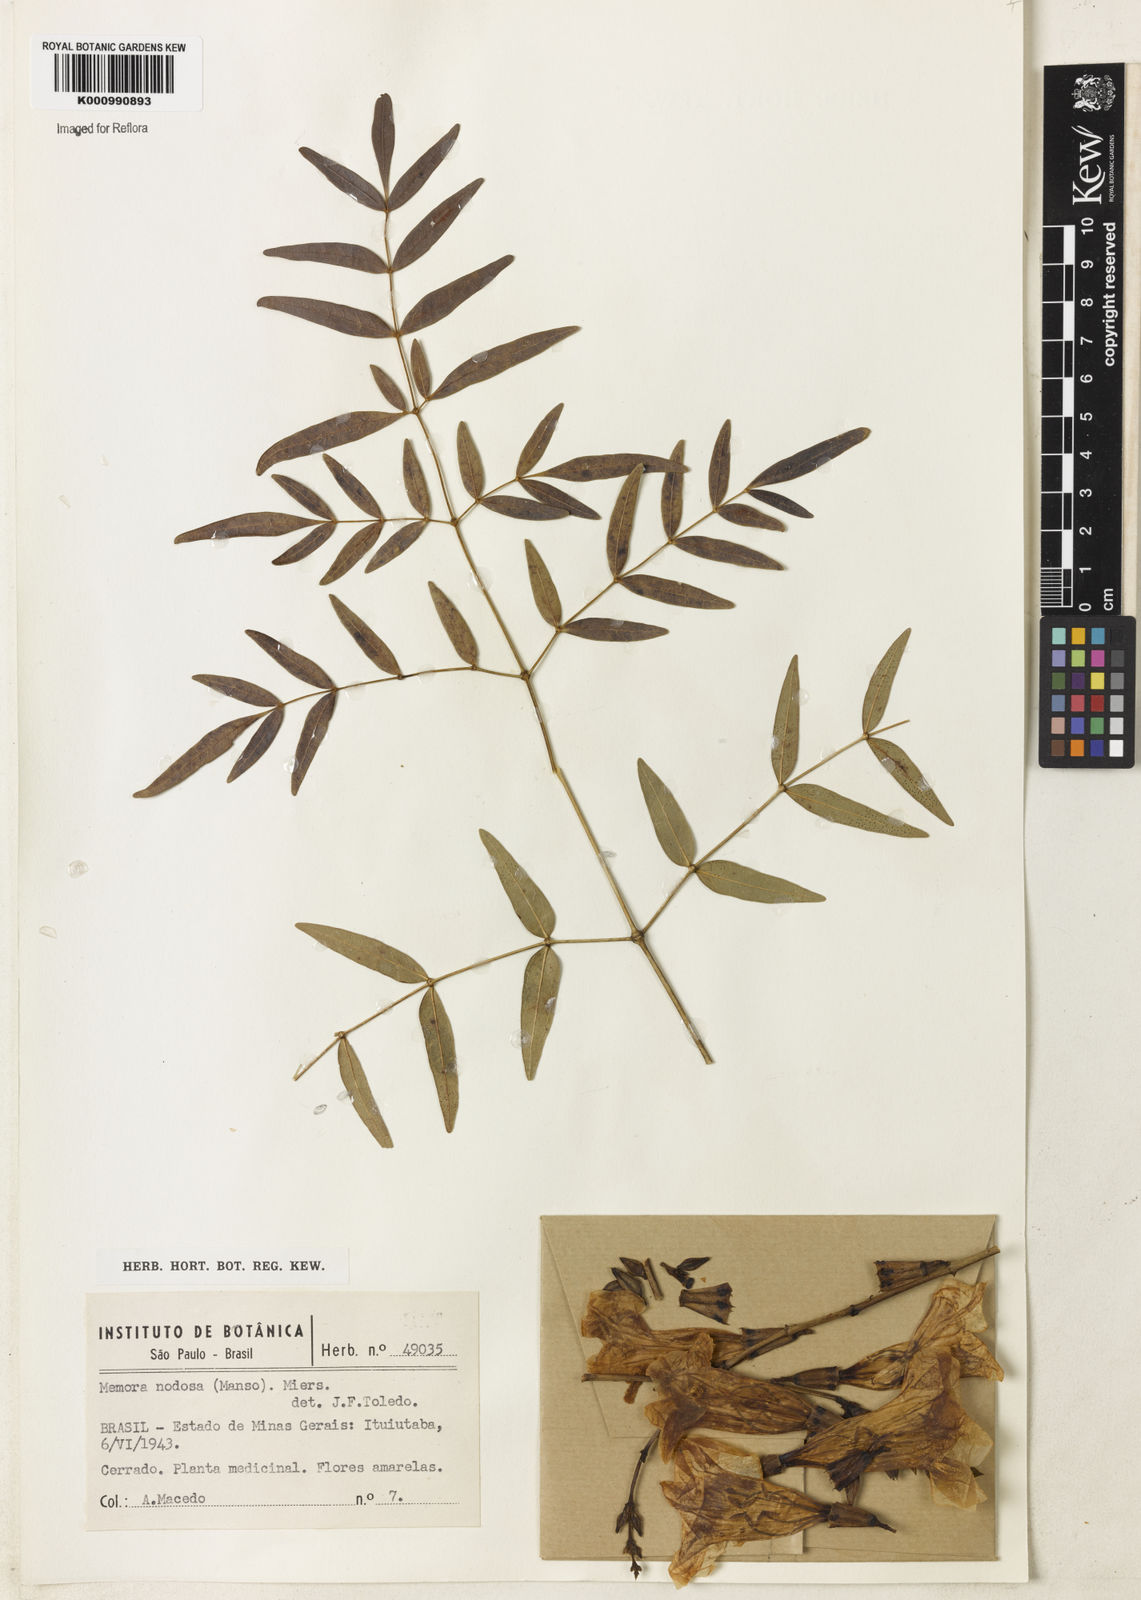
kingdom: Plantae
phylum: Tracheophyta
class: Magnoliopsida
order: Lamiales
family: Bignoniaceae
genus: Adenocalymma
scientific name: Adenocalymma nodosum
